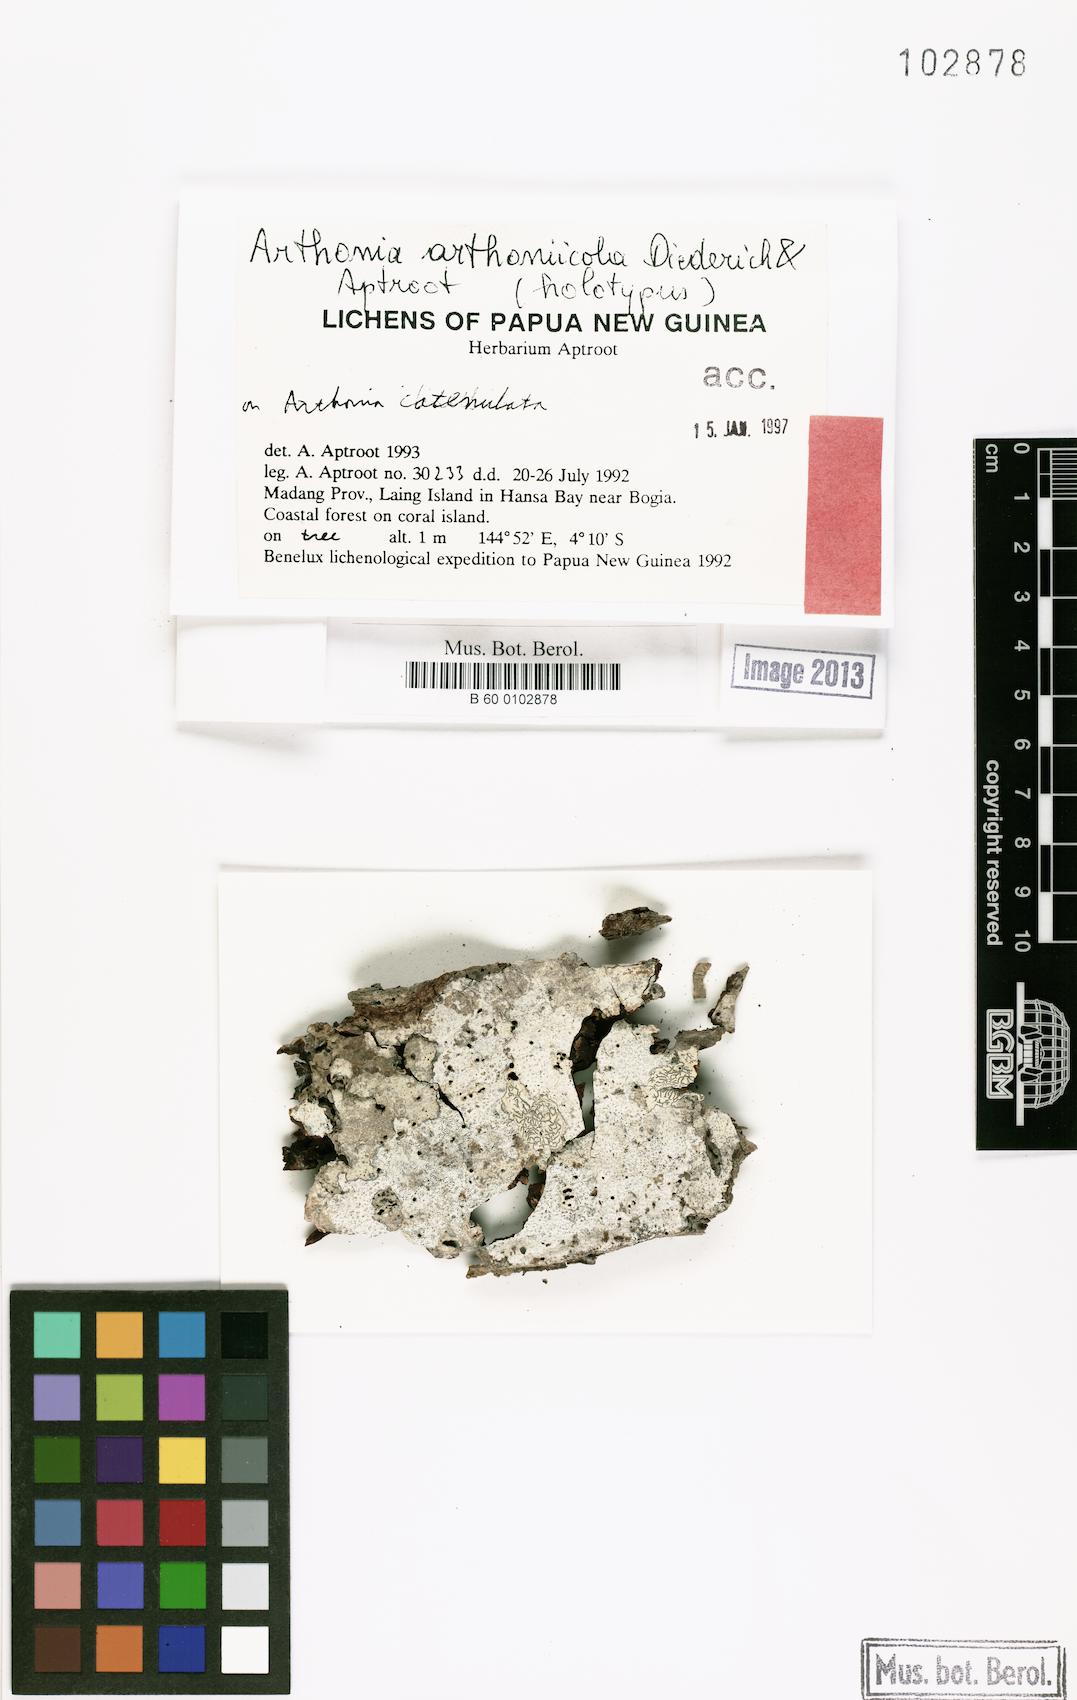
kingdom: Fungi
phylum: Ascomycota
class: Arthoniomycetes
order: Arthoniales
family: Arthoniaceae
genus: Arthonia
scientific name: Arthonia arthoniicola
